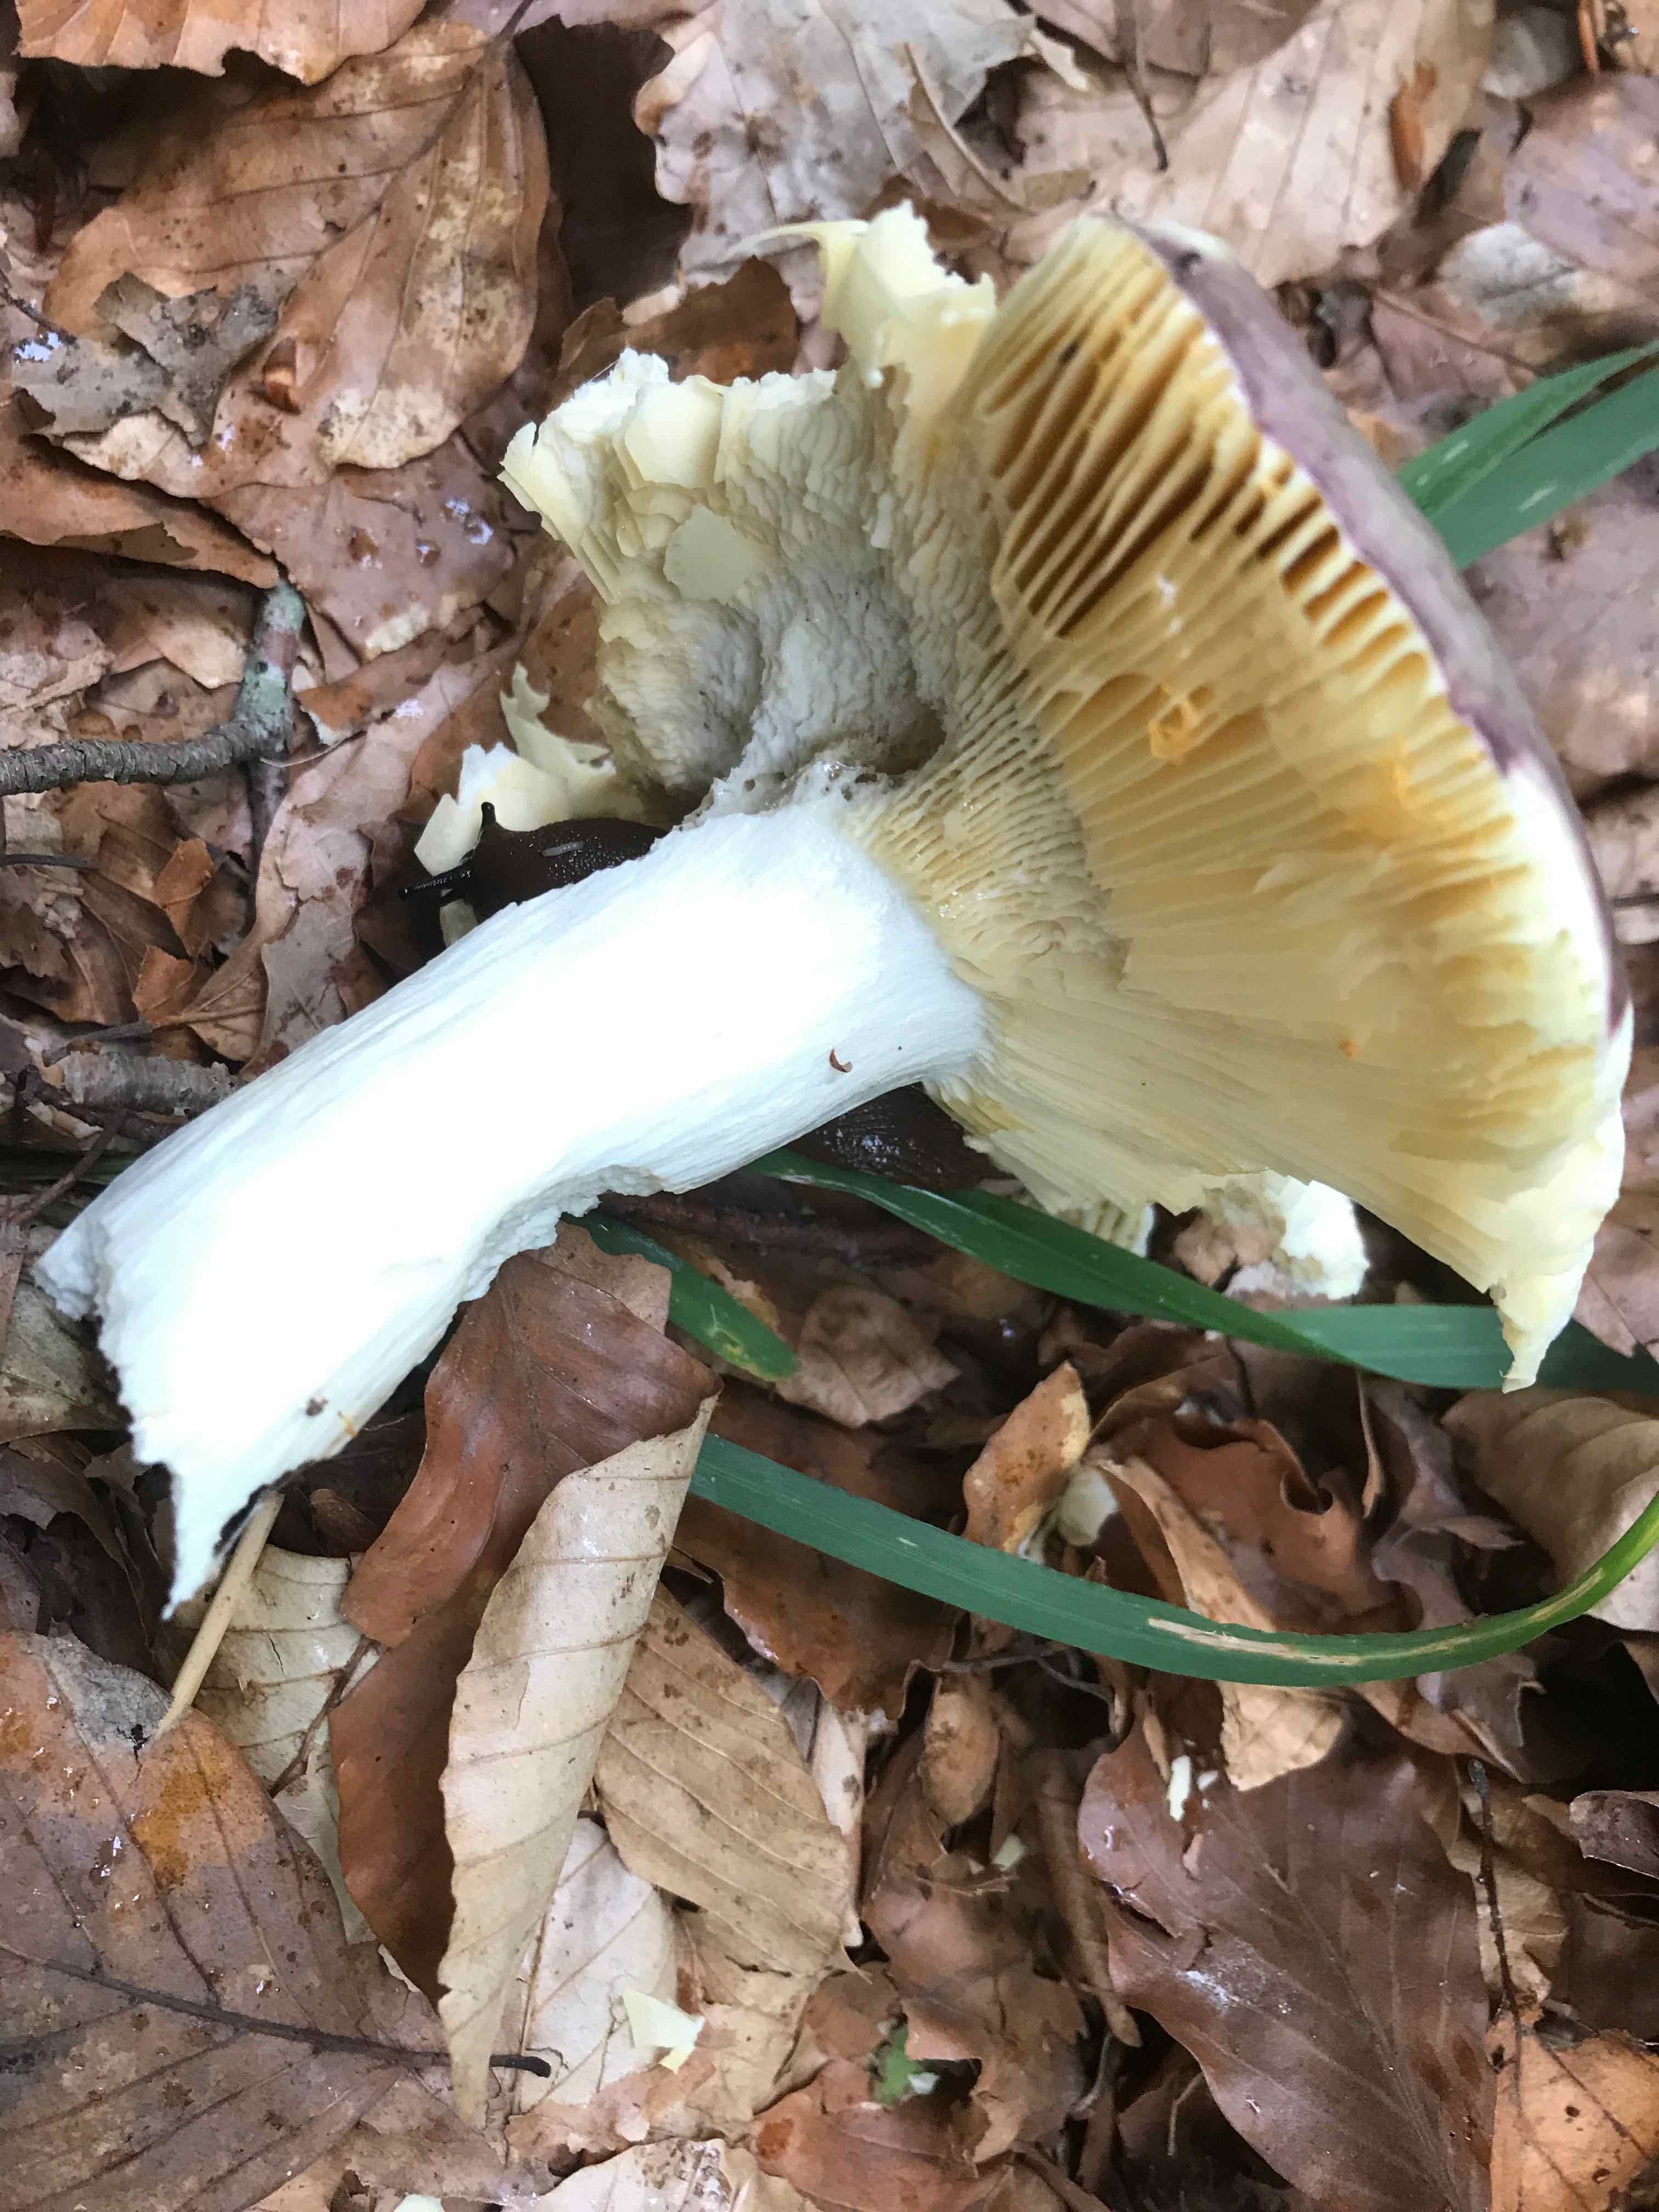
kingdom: Fungi
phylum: Basidiomycota
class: Agaricomycetes
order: Russulales
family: Russulaceae
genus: Russula
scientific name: Russula romellii
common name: romells skørhat
